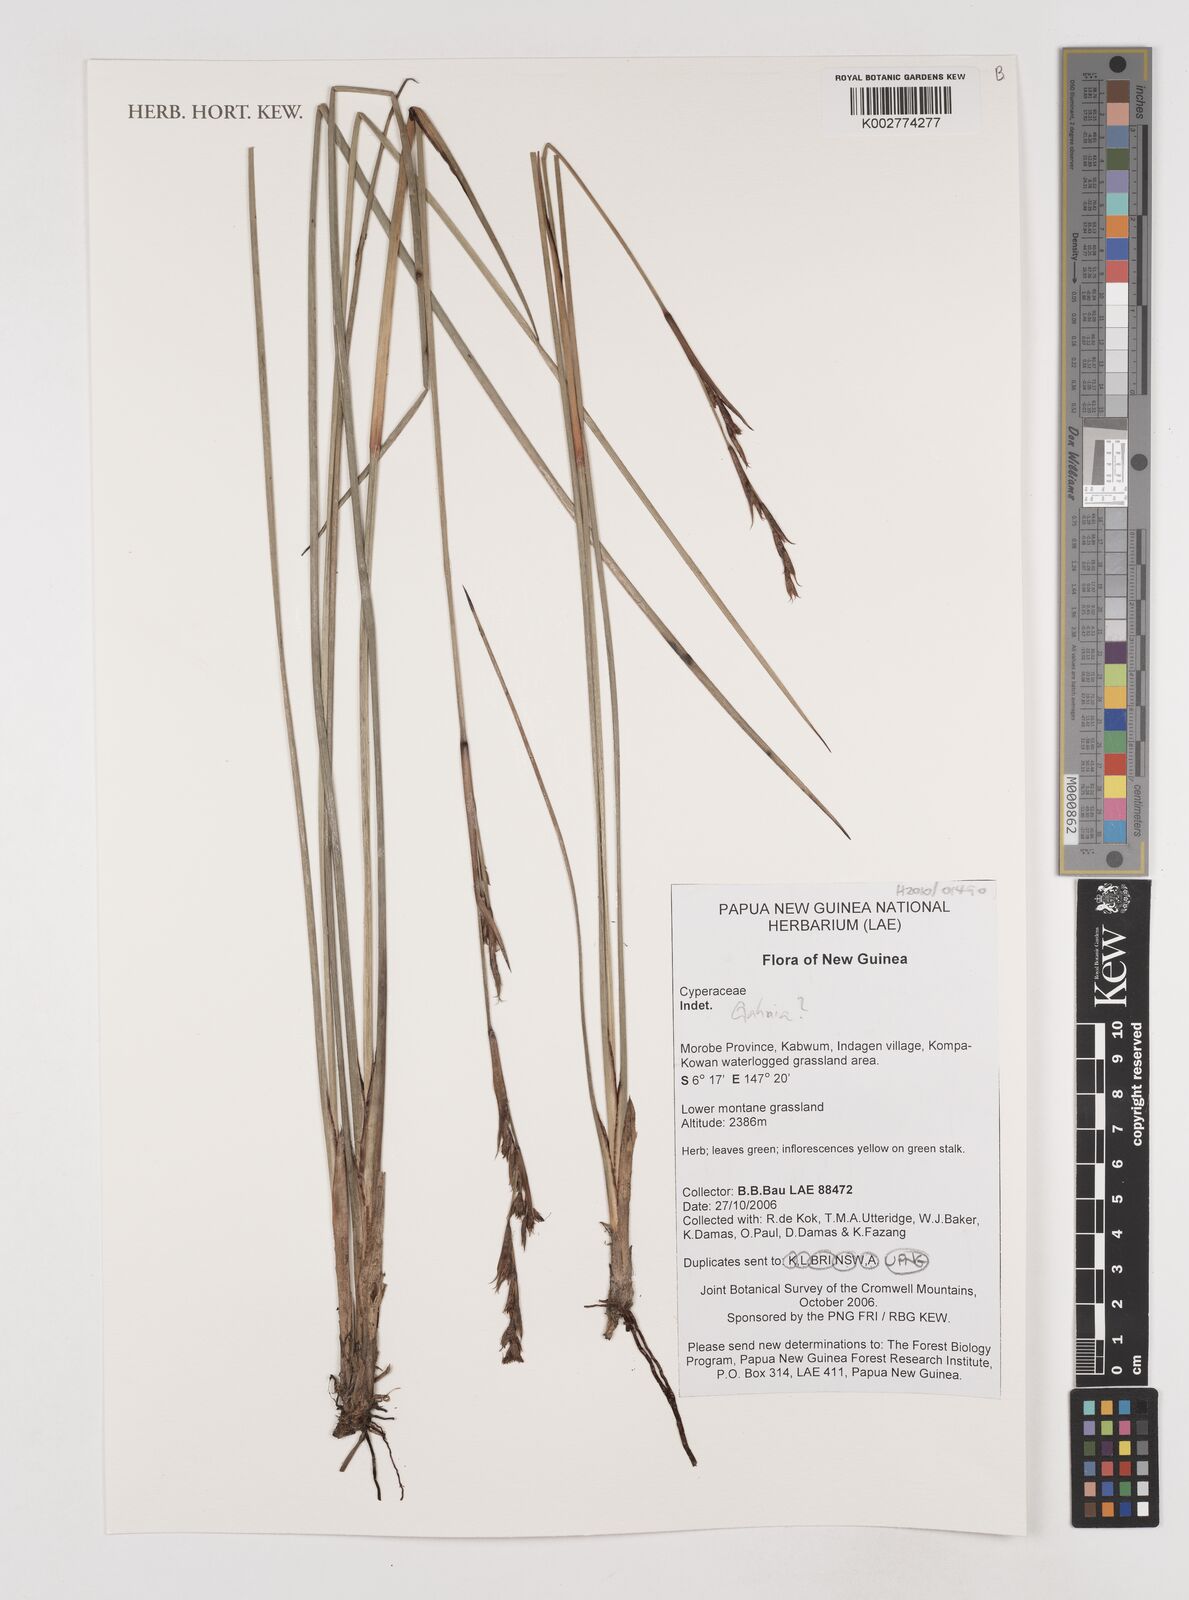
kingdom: Plantae
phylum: Tracheophyta
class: Liliopsida
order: Poales
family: Cyperaceae
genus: Gahnia
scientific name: Gahnia
